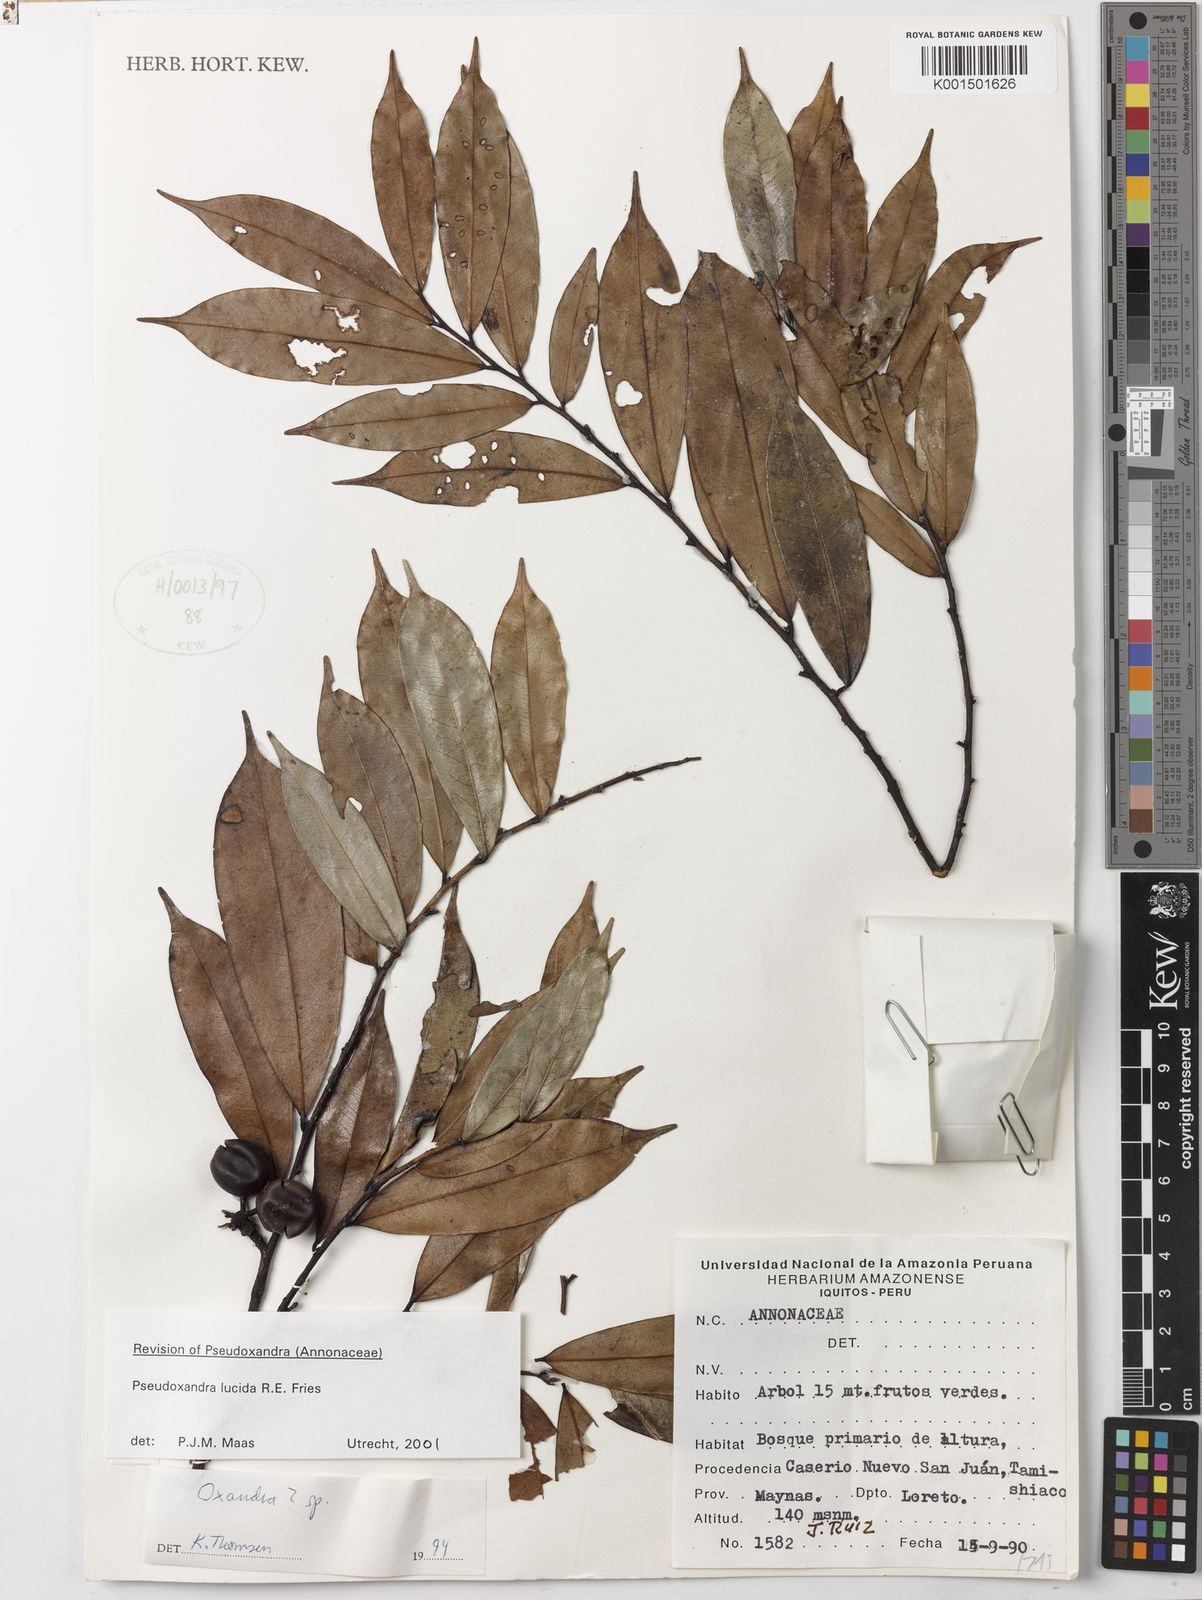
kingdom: Plantae
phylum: Tracheophyta
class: Magnoliopsida
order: Magnoliales
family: Annonaceae
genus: Pseudoxandra
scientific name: Pseudoxandra lucida
